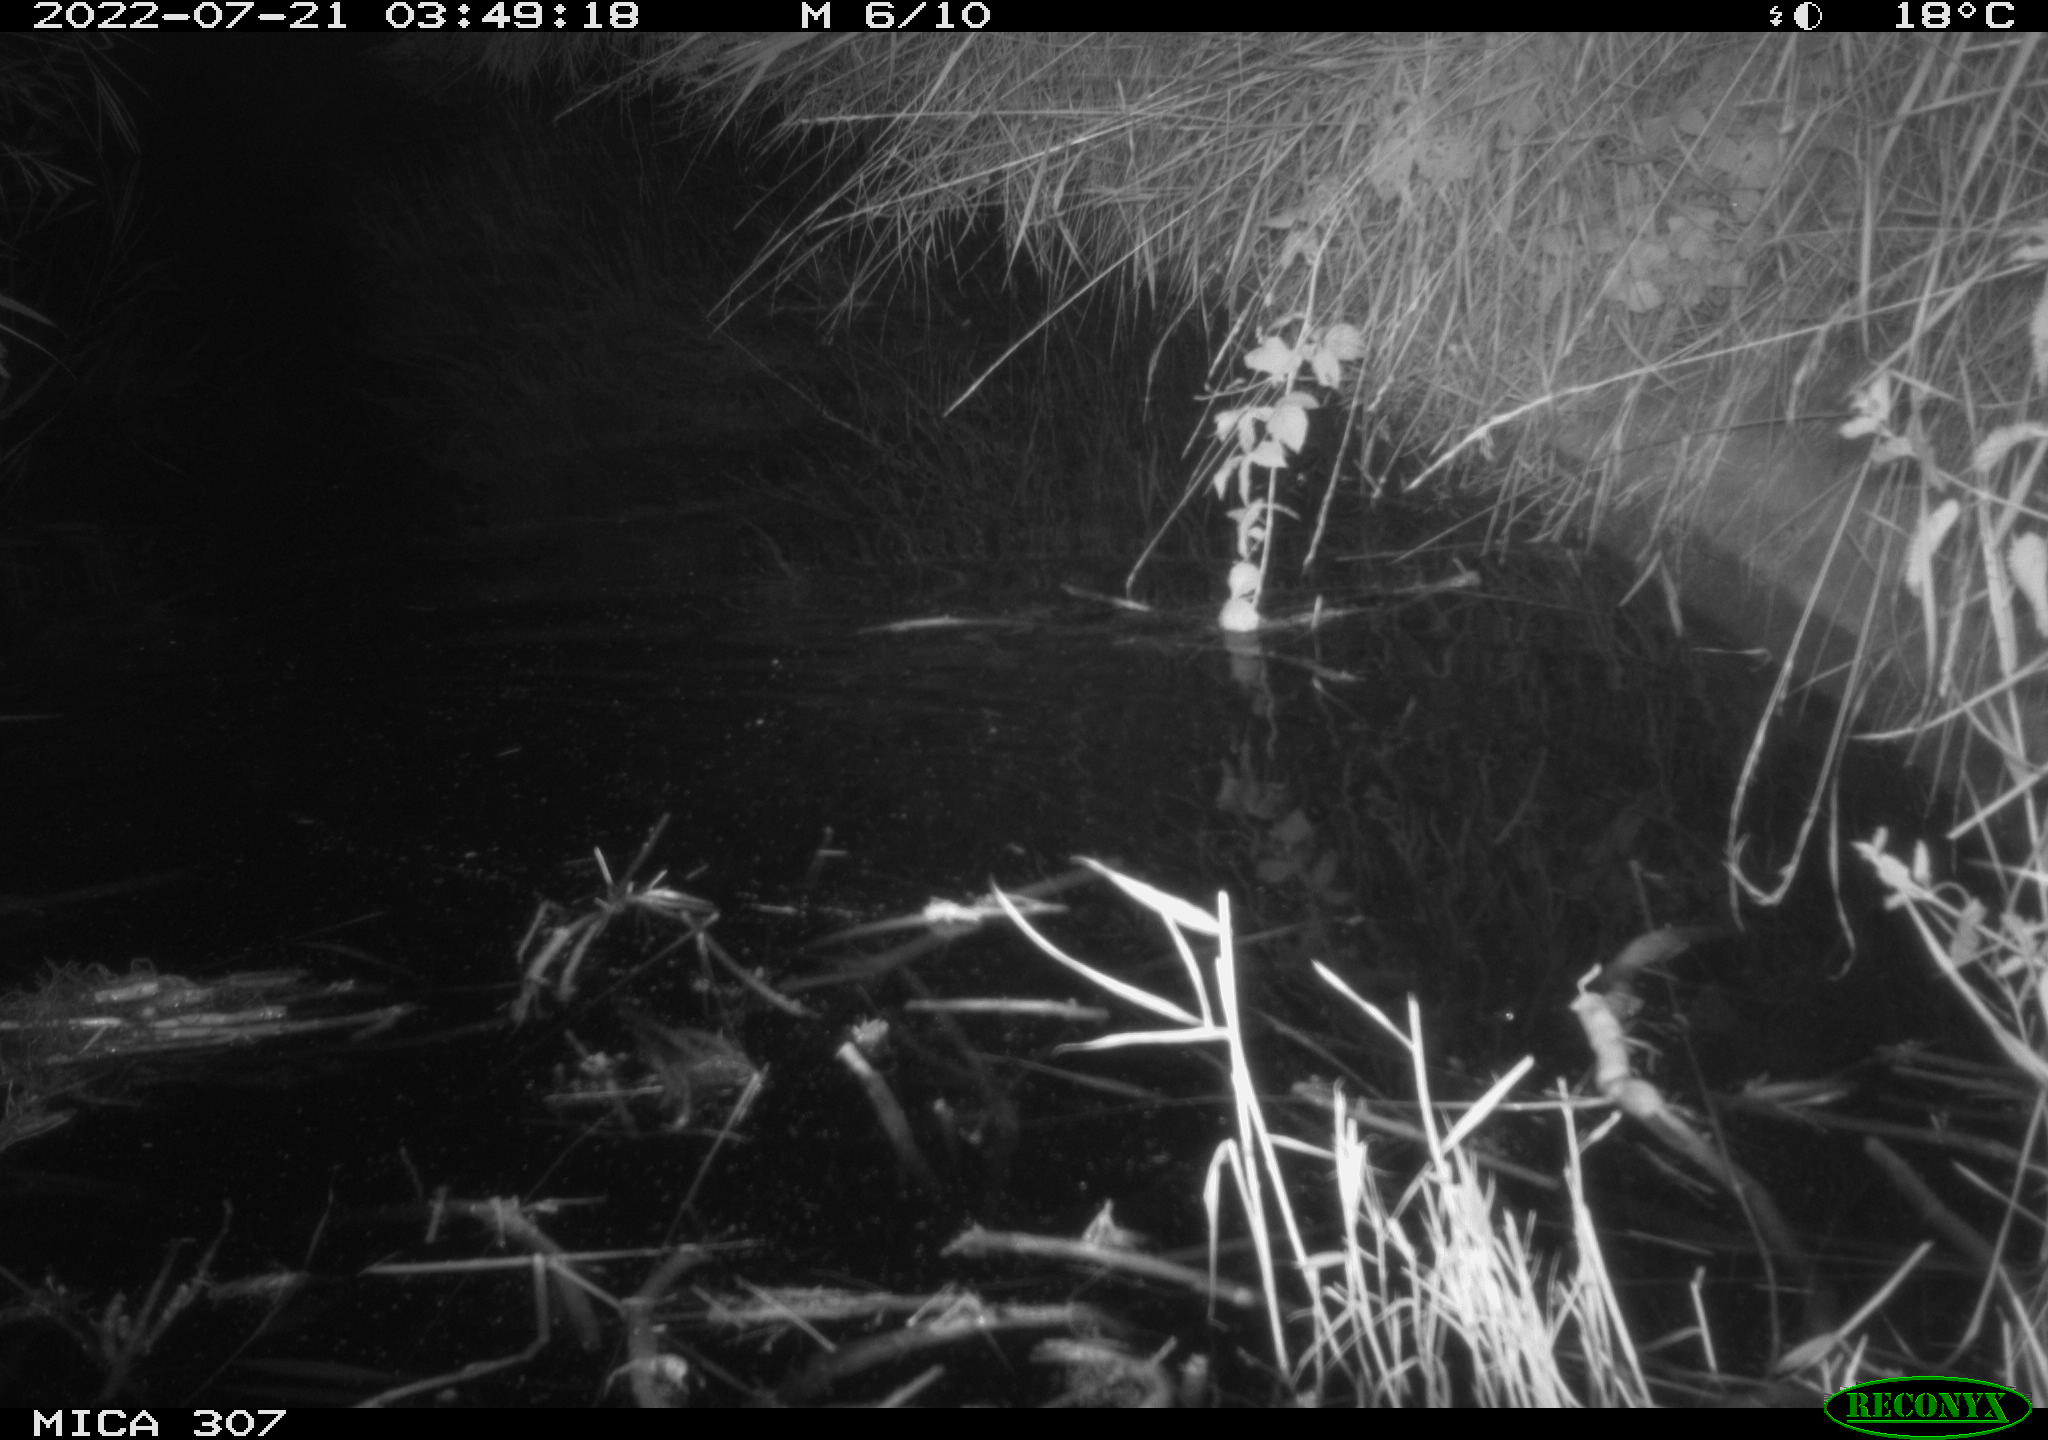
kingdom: Animalia
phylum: Chordata
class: Mammalia
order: Rodentia
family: Muridae
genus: Rattus
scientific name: Rattus norvegicus
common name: Brown rat
